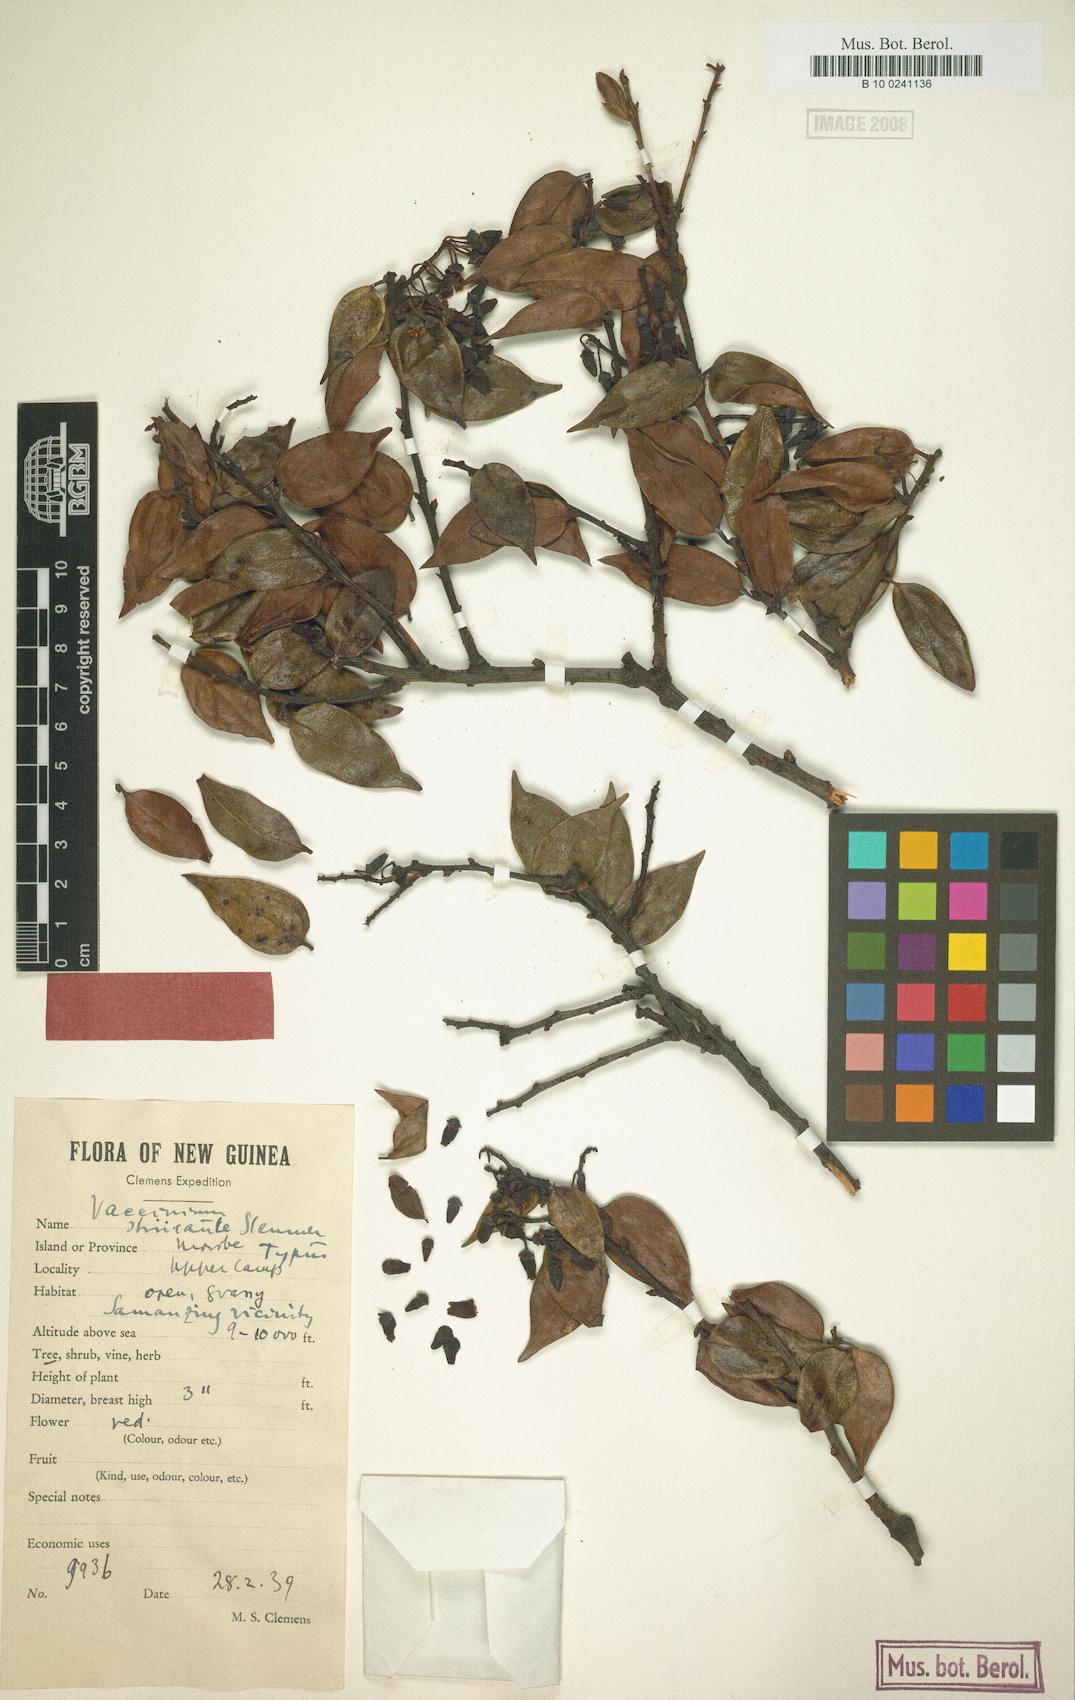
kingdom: Plantae
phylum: Tracheophyta
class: Magnoliopsida
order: Ericales
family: Ericaceae
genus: Vaccinium
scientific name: Vaccinium striicaule
